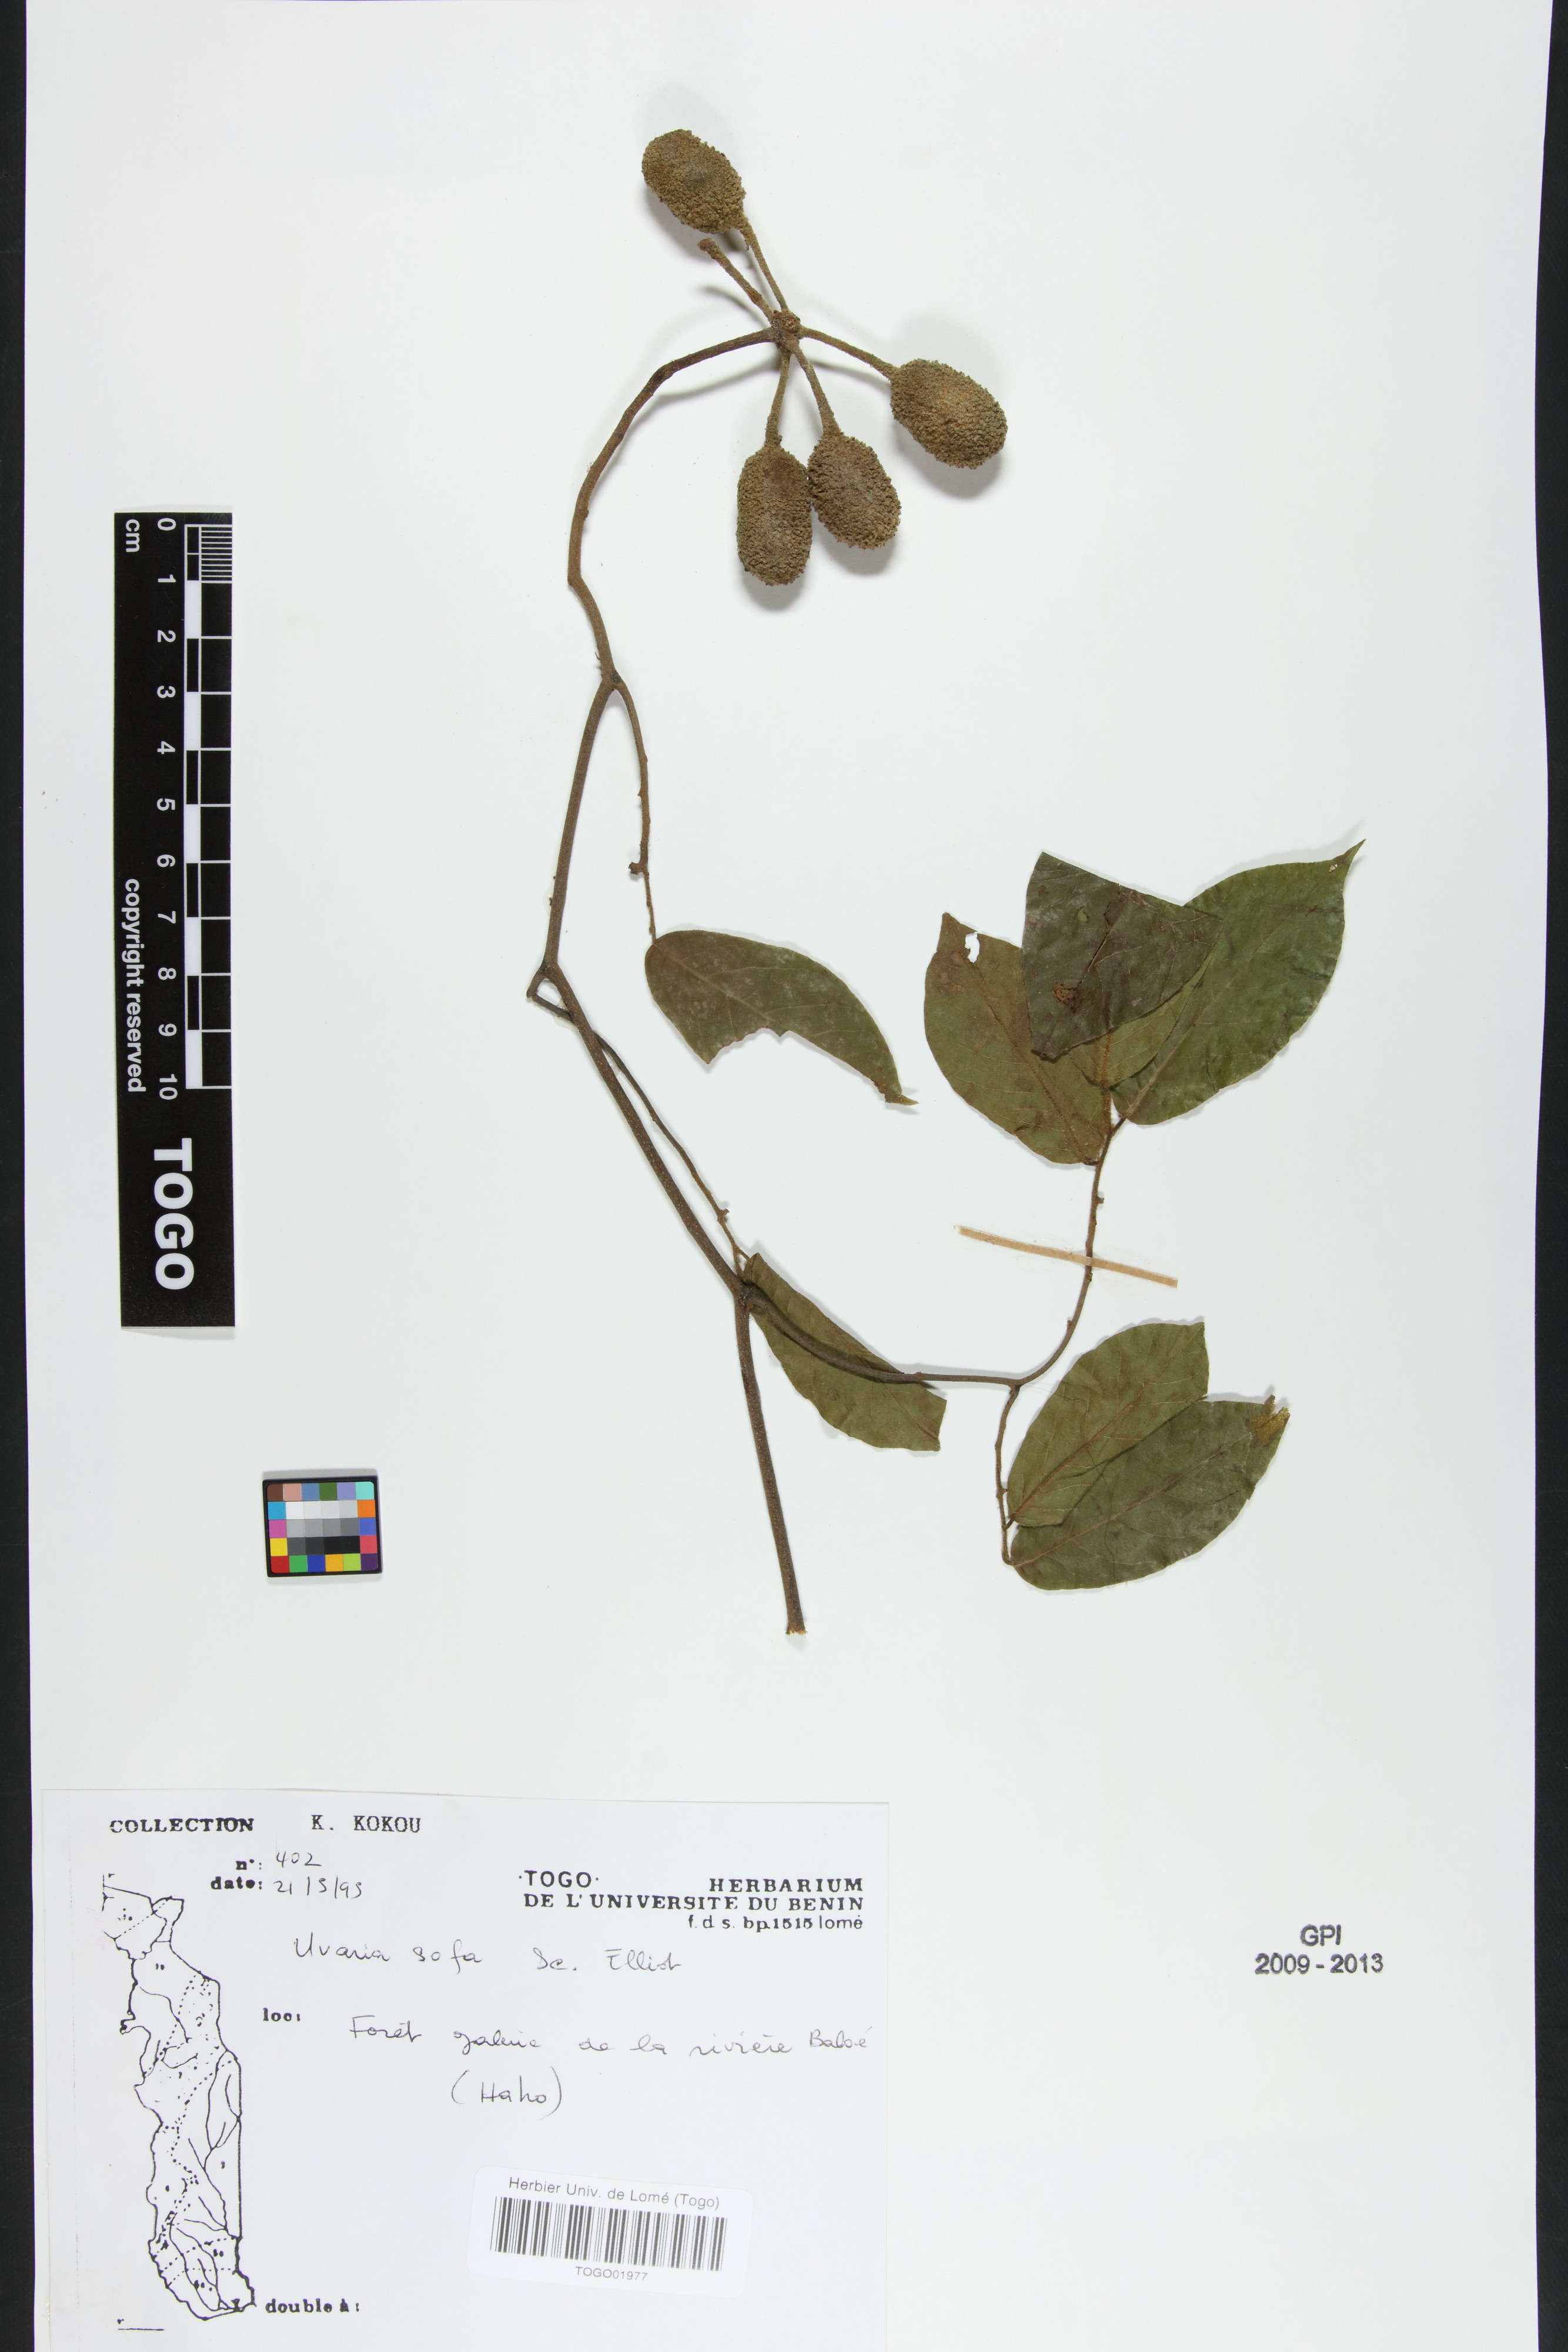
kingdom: Plantae
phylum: Tracheophyta
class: Magnoliopsida
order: Magnoliales
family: Annonaceae
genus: Uvaria
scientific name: Uvaria sofa
